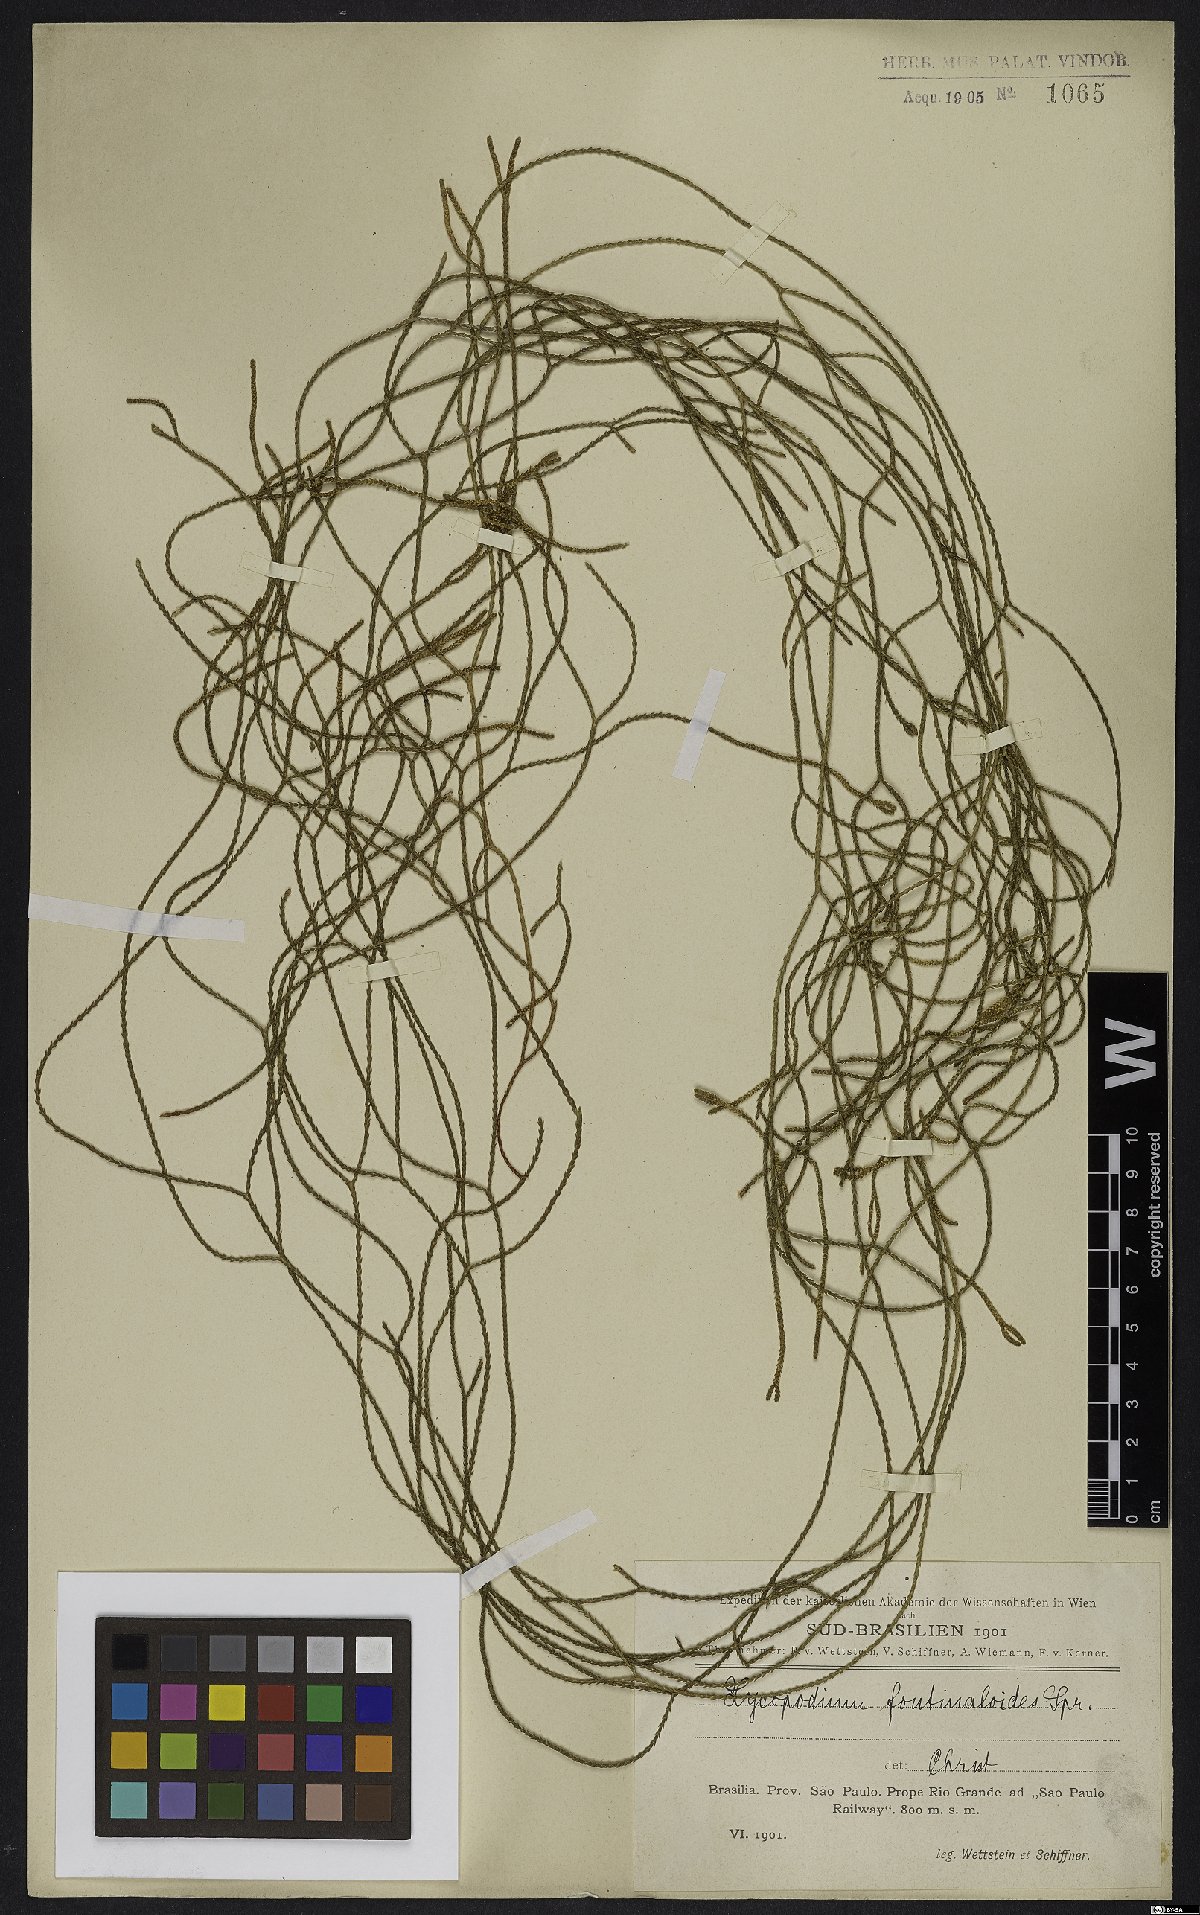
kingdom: Plantae
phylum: Tracheophyta
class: Lycopodiopsida
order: Lycopodiales
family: Lycopodiaceae
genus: Phlegmariurus
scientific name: Phlegmariurus fontinaloides
